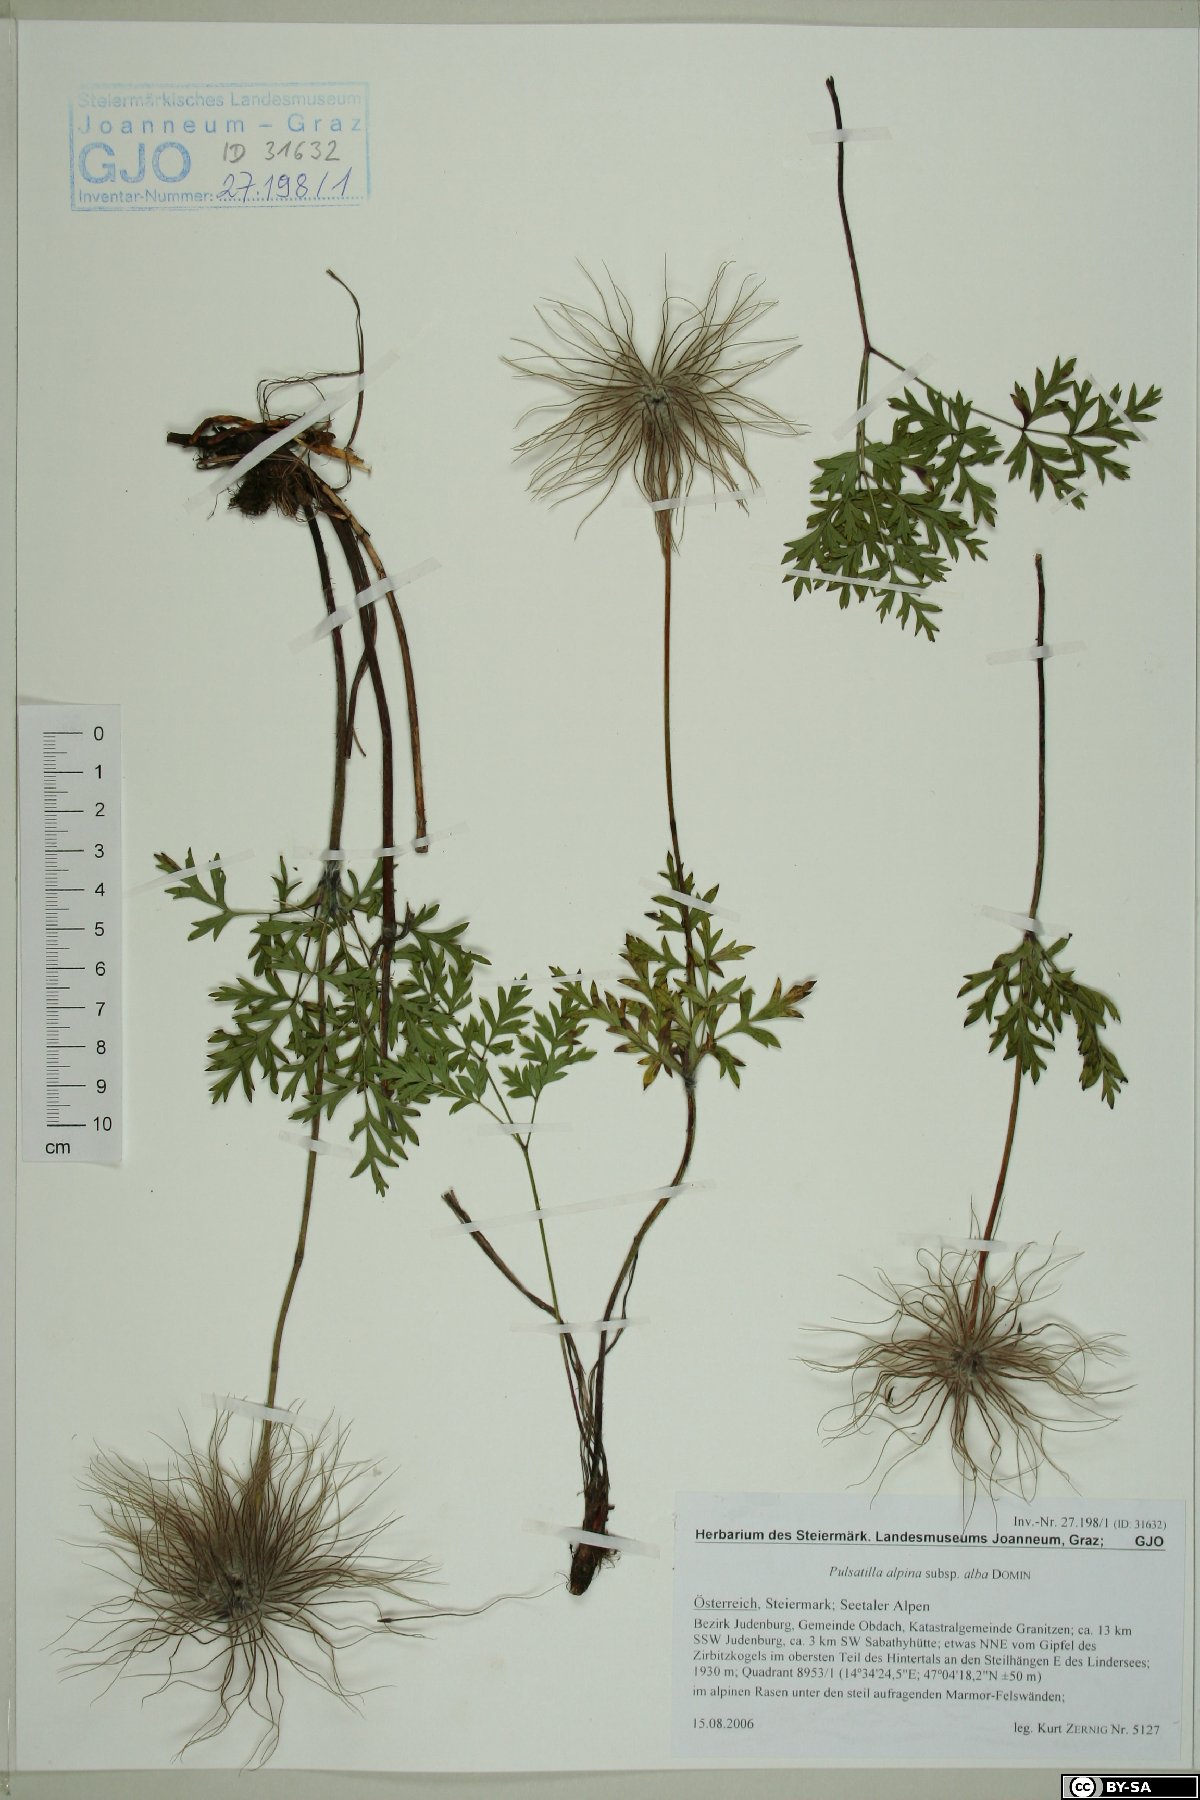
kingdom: Plantae
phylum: Tracheophyta
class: Magnoliopsida
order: Ranunculales
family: Ranunculaceae
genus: Pulsatilla
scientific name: Pulsatilla alpina
